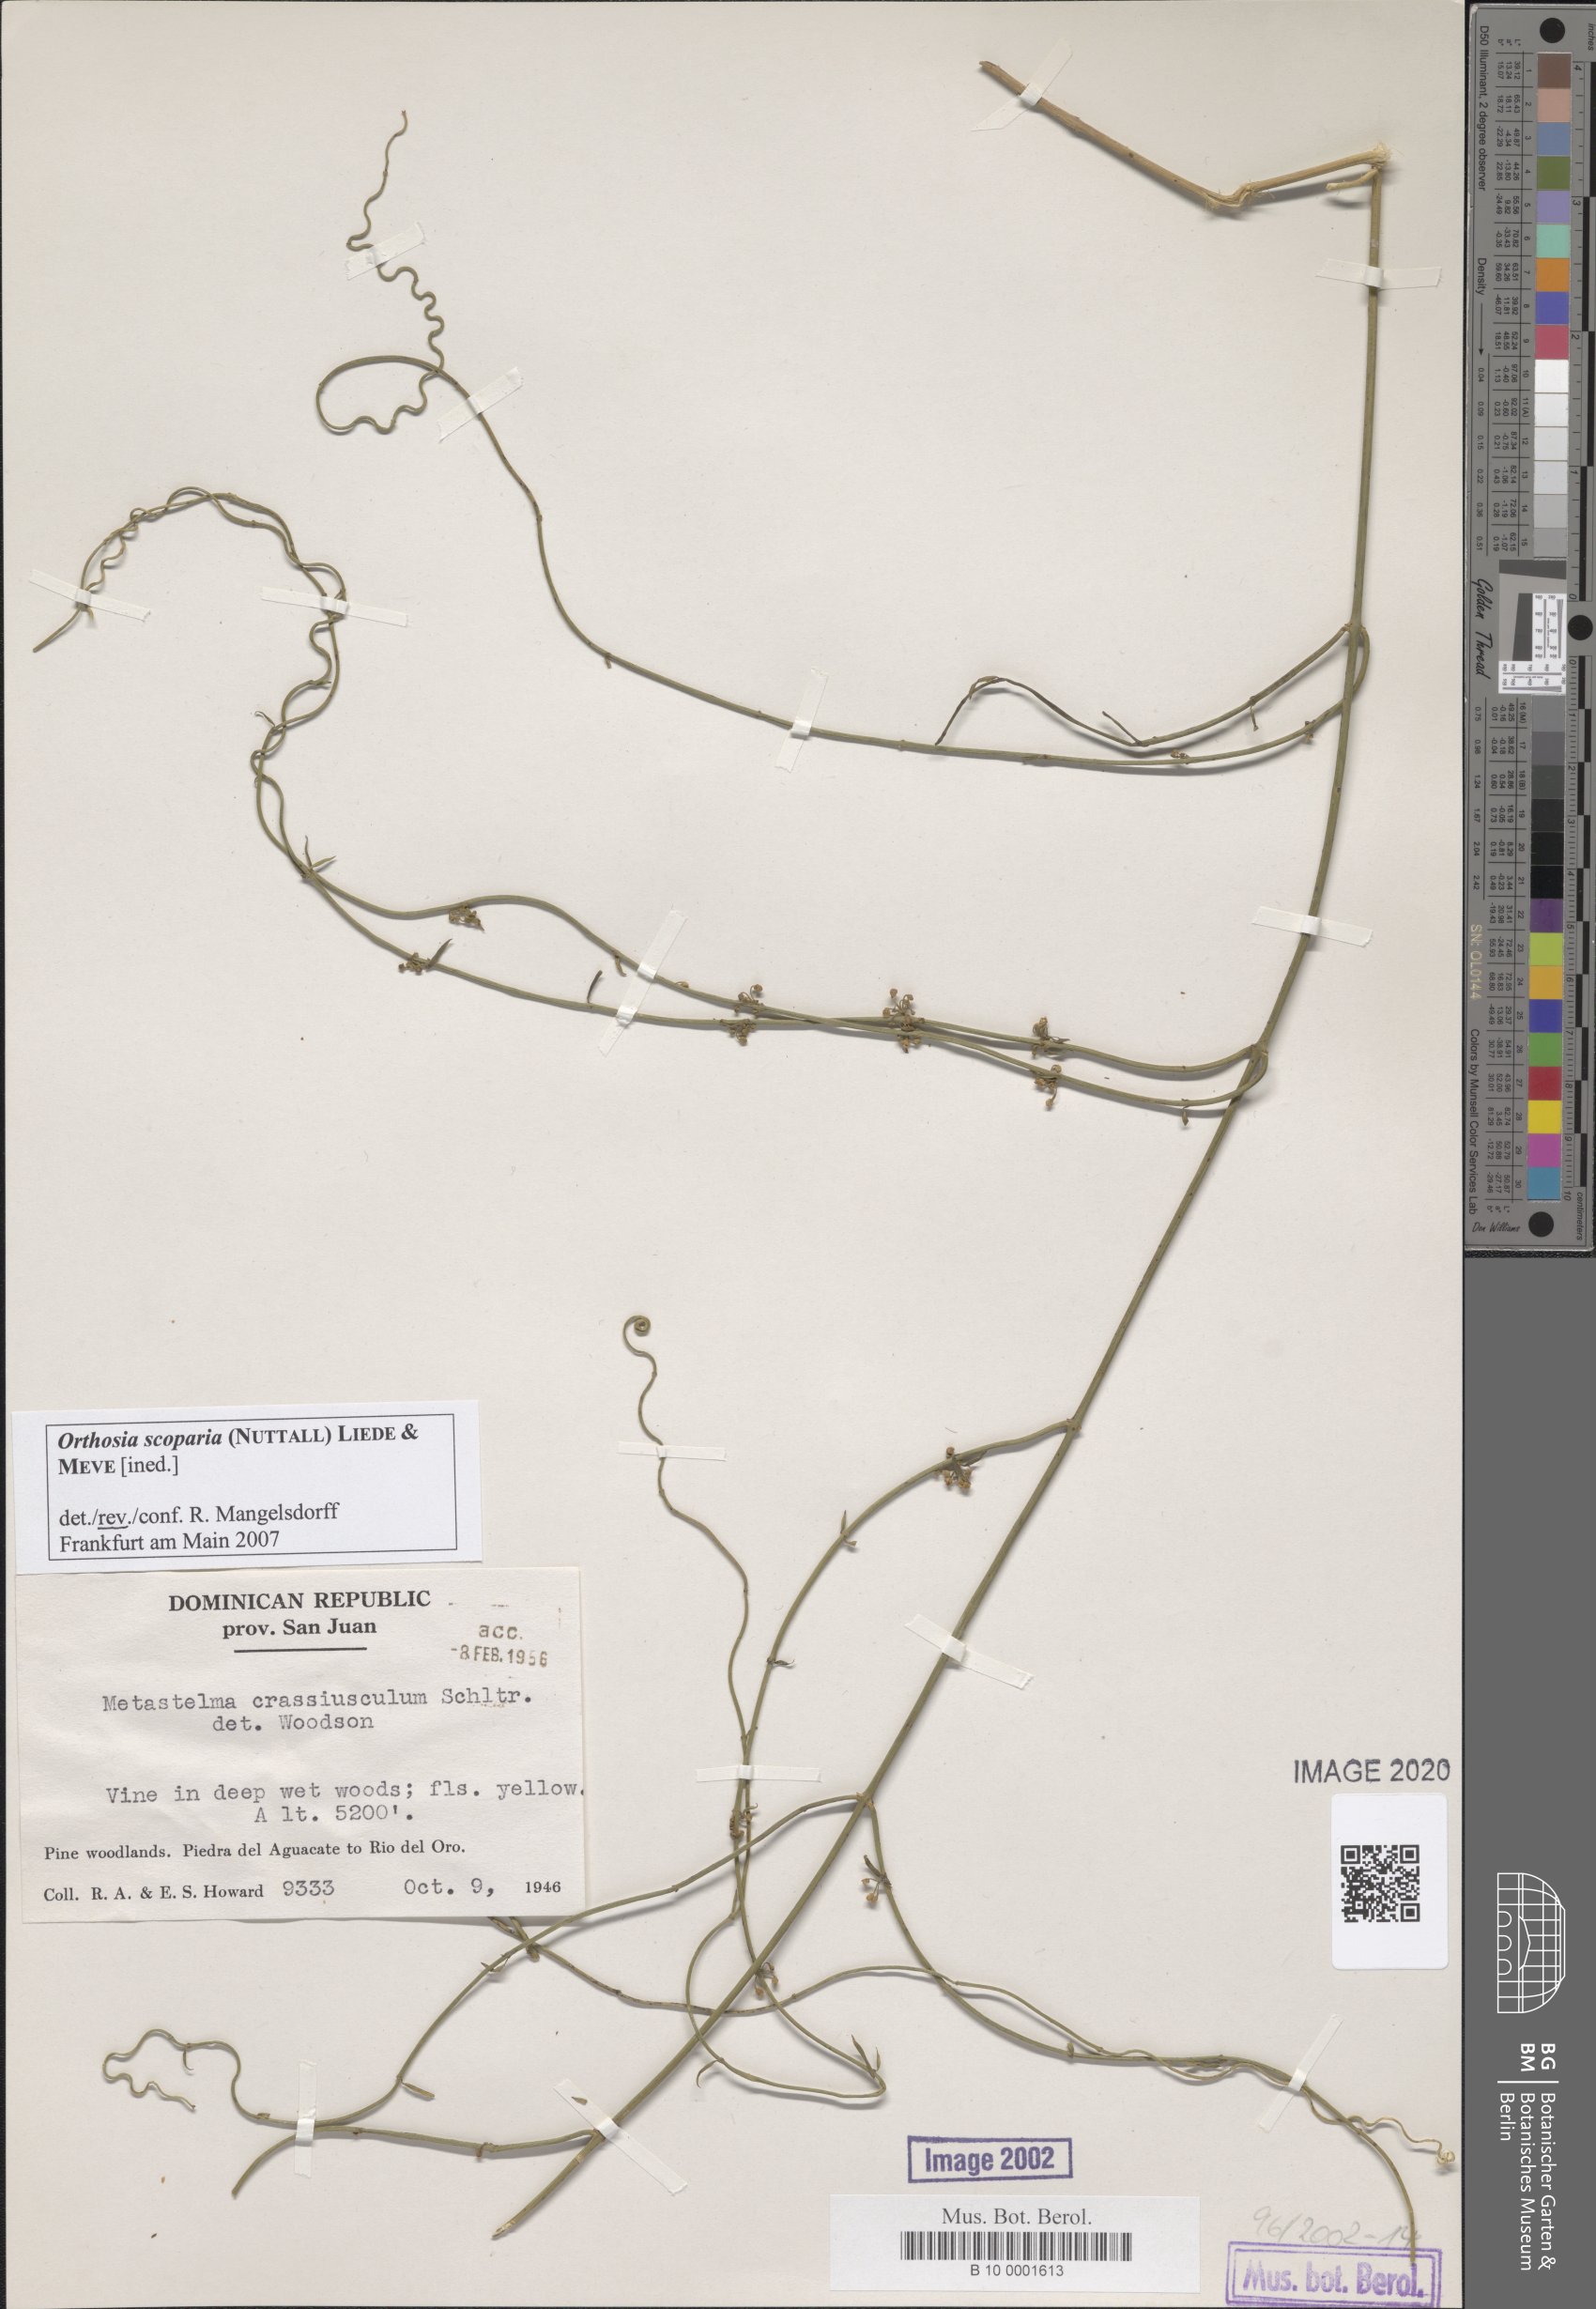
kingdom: Plantae
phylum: Tracheophyta
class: Magnoliopsida
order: Gentianales
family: Apocynaceae
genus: Metastelma
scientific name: Metastelma crassiusculum
